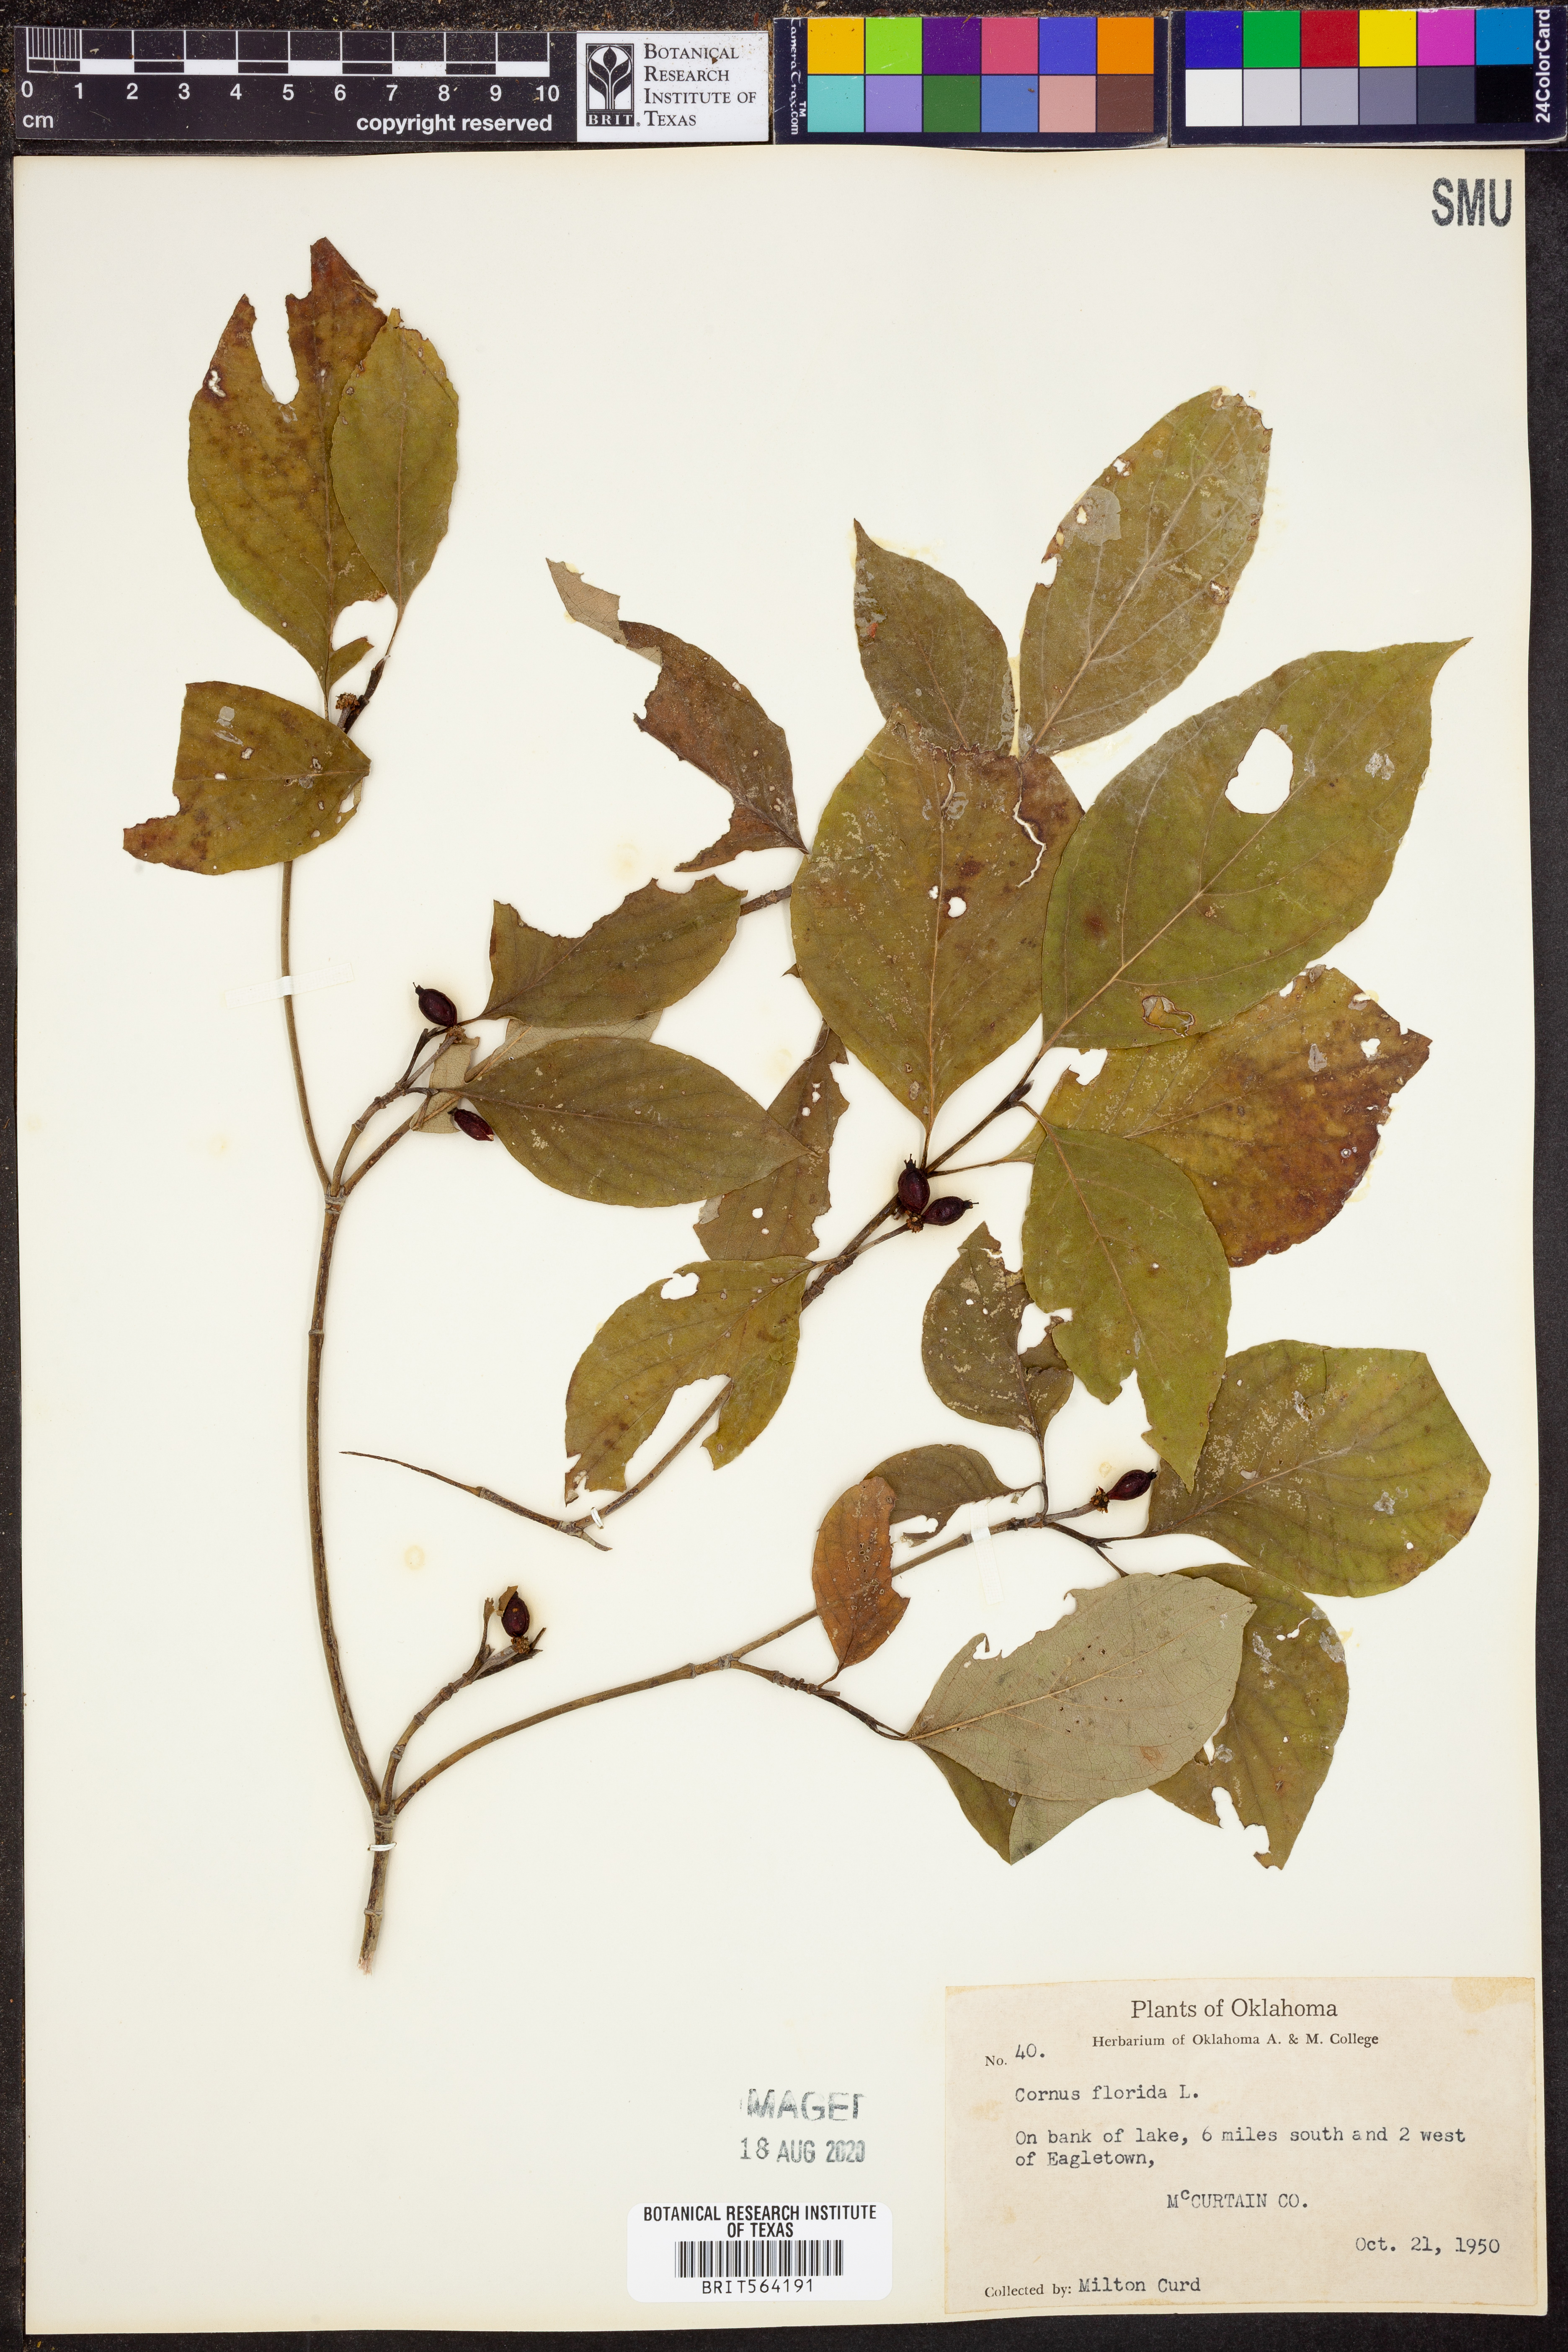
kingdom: Plantae
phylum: Tracheophyta
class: Magnoliopsida
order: Cornales
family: Cornaceae
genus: Cornus
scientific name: Cornus florida
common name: Flowering dogwood
